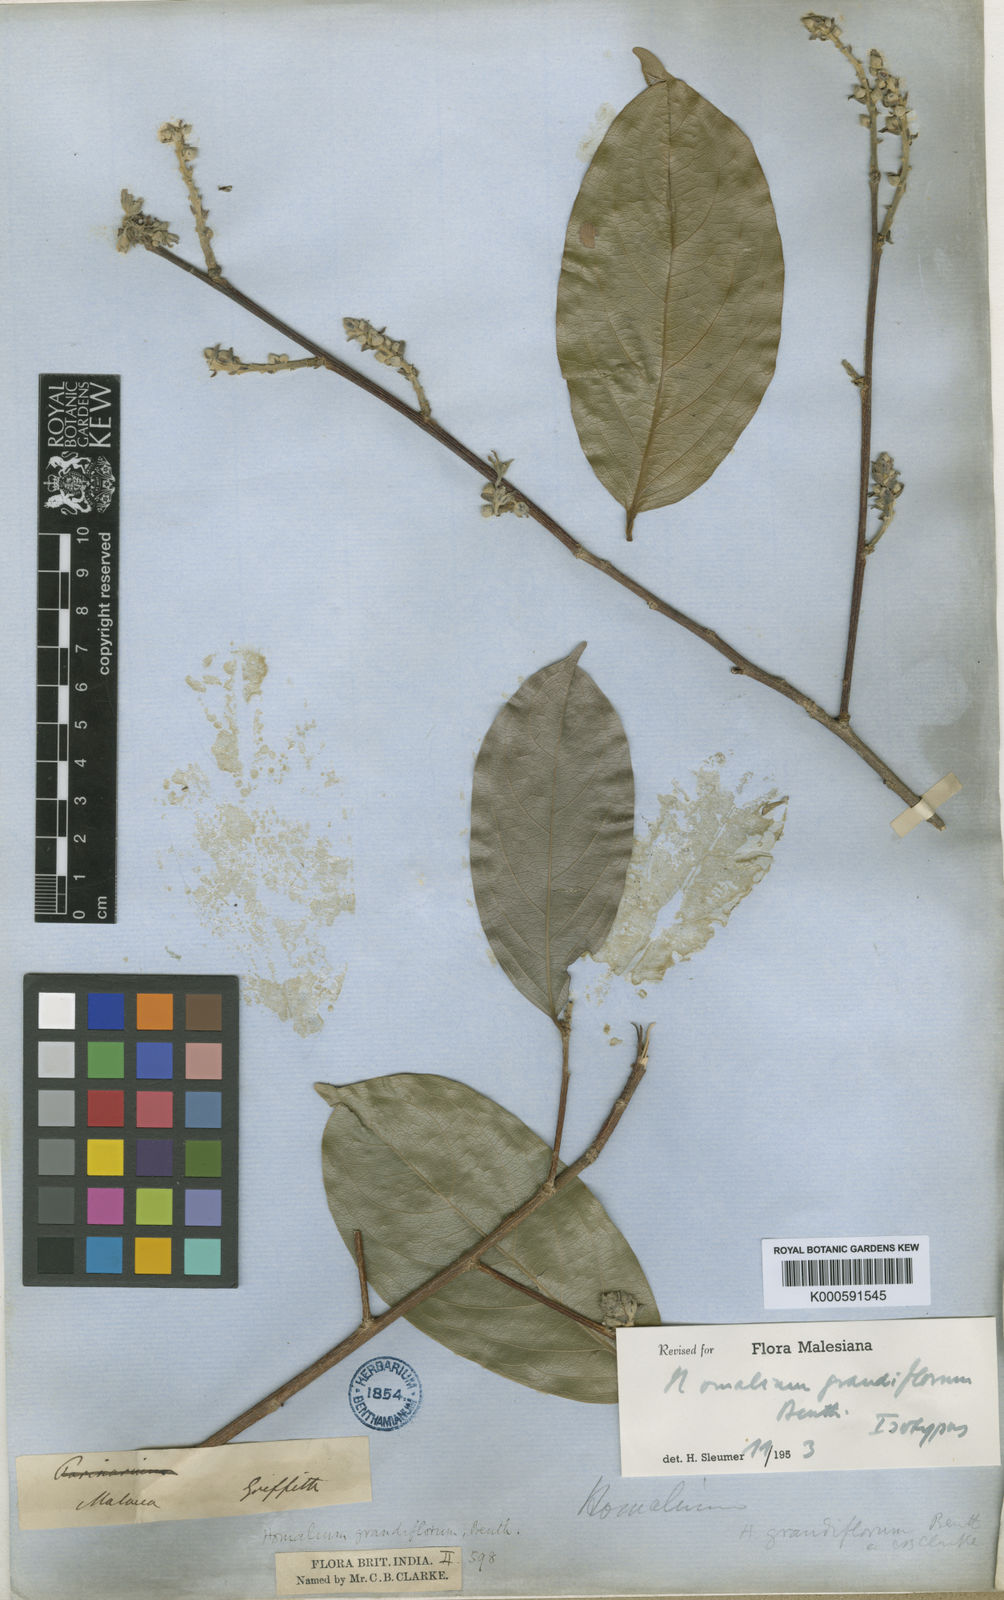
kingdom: Plantae
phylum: Tracheophyta
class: Magnoliopsida
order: Malpighiales
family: Salicaceae
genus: Homalium
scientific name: Homalium grandiflorum
